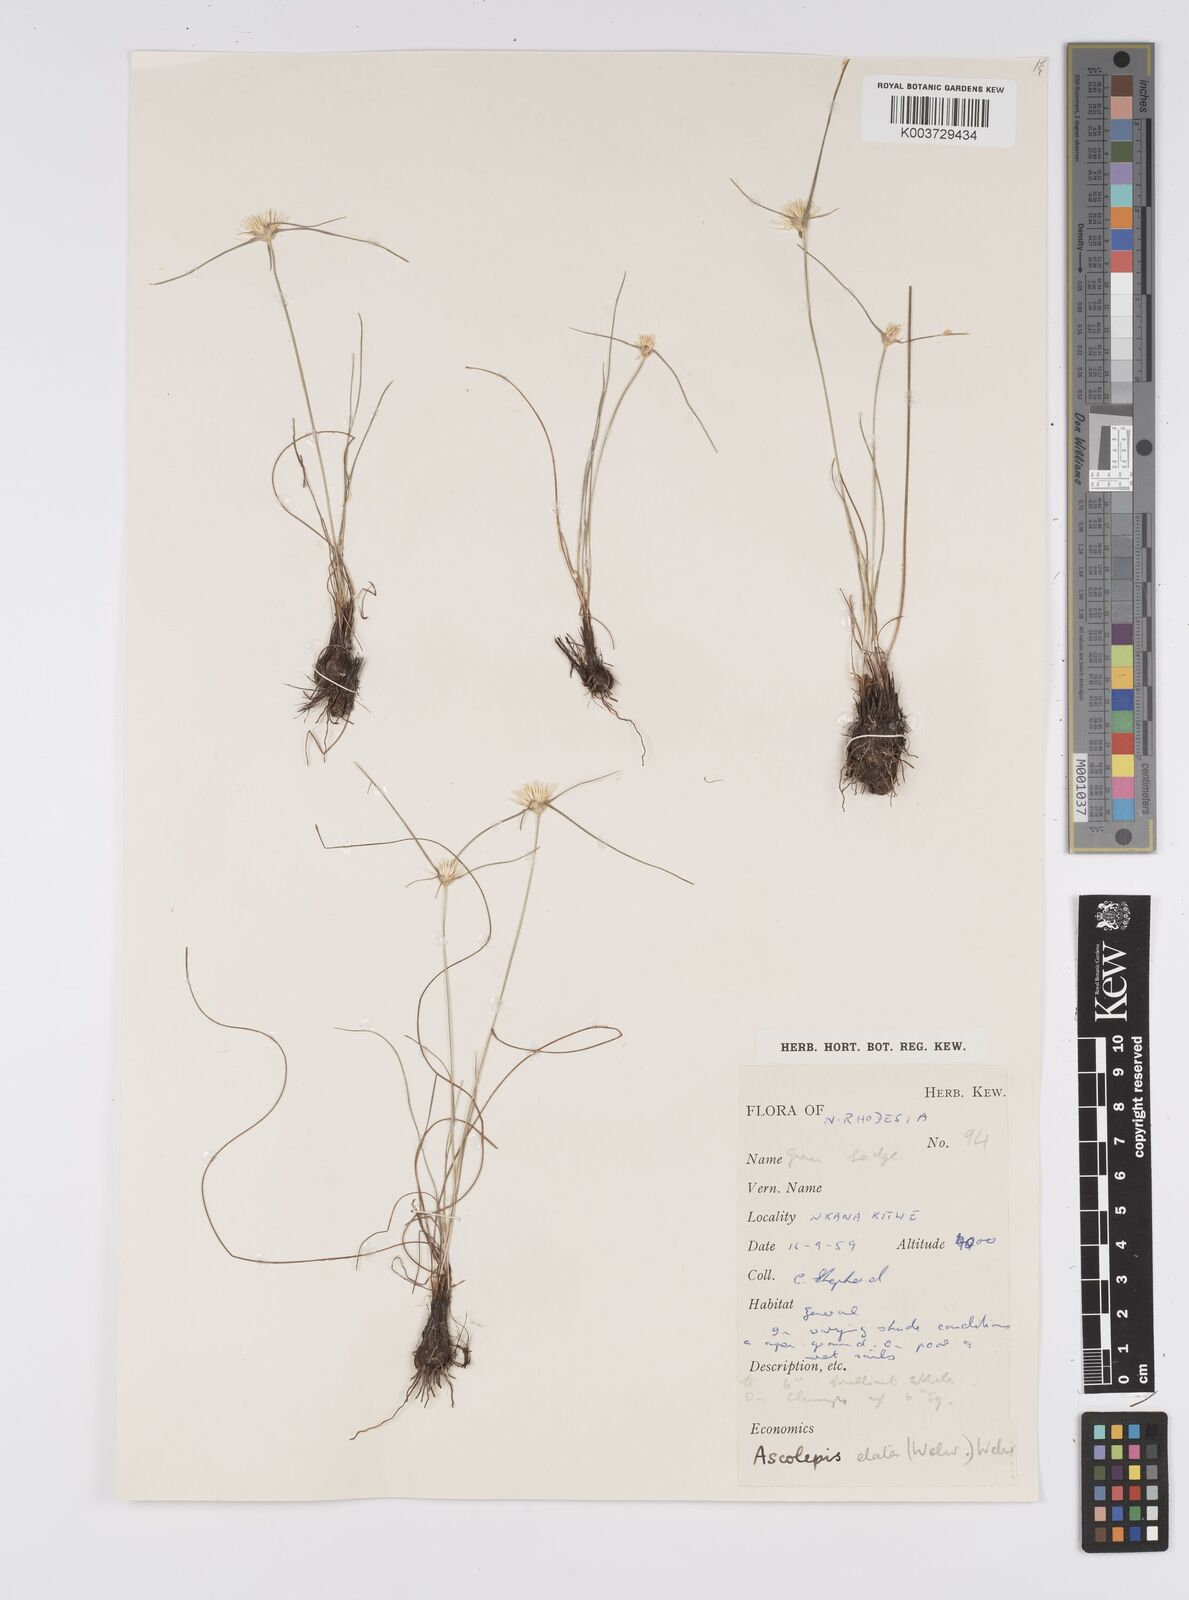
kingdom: Plantae
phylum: Tracheophyta
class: Liliopsida
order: Poales
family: Cyperaceae
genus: Cyperus
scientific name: Cyperus
